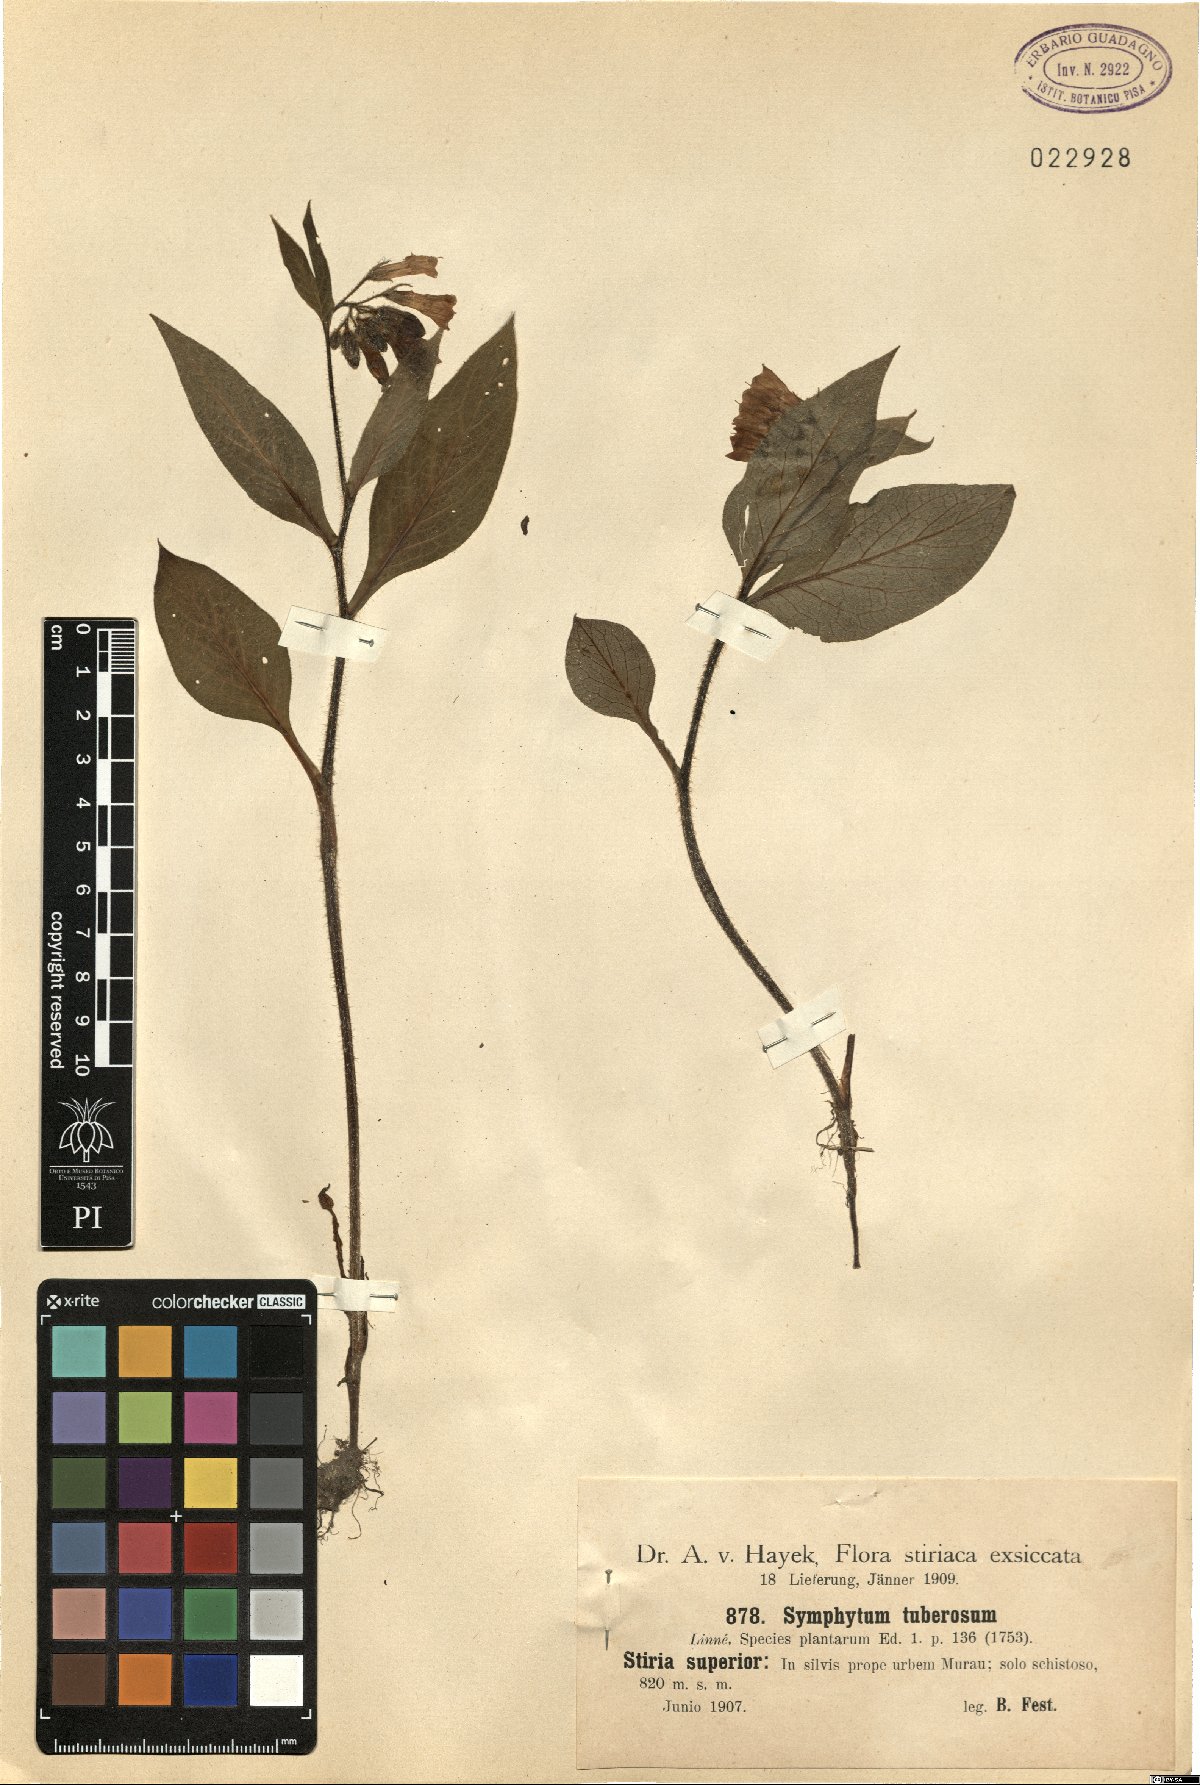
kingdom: Plantae
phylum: Tracheophyta
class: Magnoliopsida
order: Boraginales
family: Boraginaceae
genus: Symphytum
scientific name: Symphytum tuberosum
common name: Tuberous comfrey
